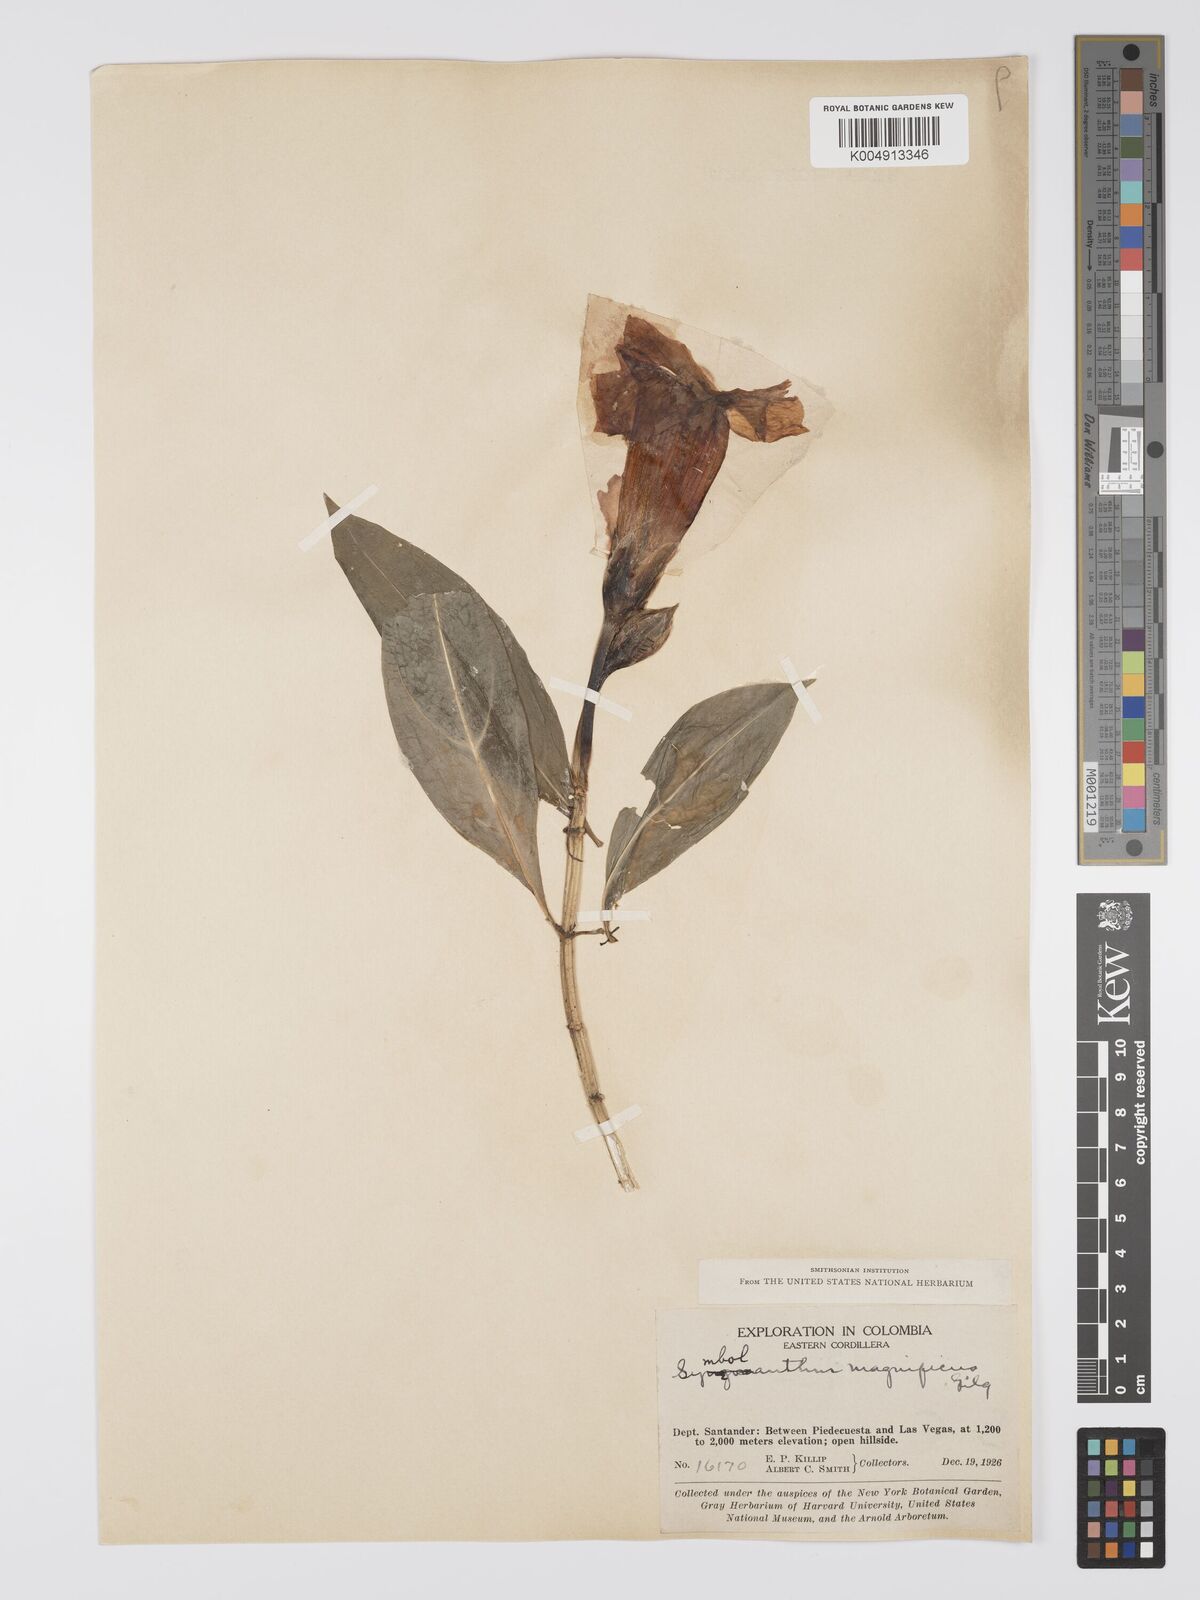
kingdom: Plantae
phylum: Tracheophyta
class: Magnoliopsida
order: Gentianales
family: Gentianaceae
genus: Symbolanthus
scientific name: Symbolanthus superbus
